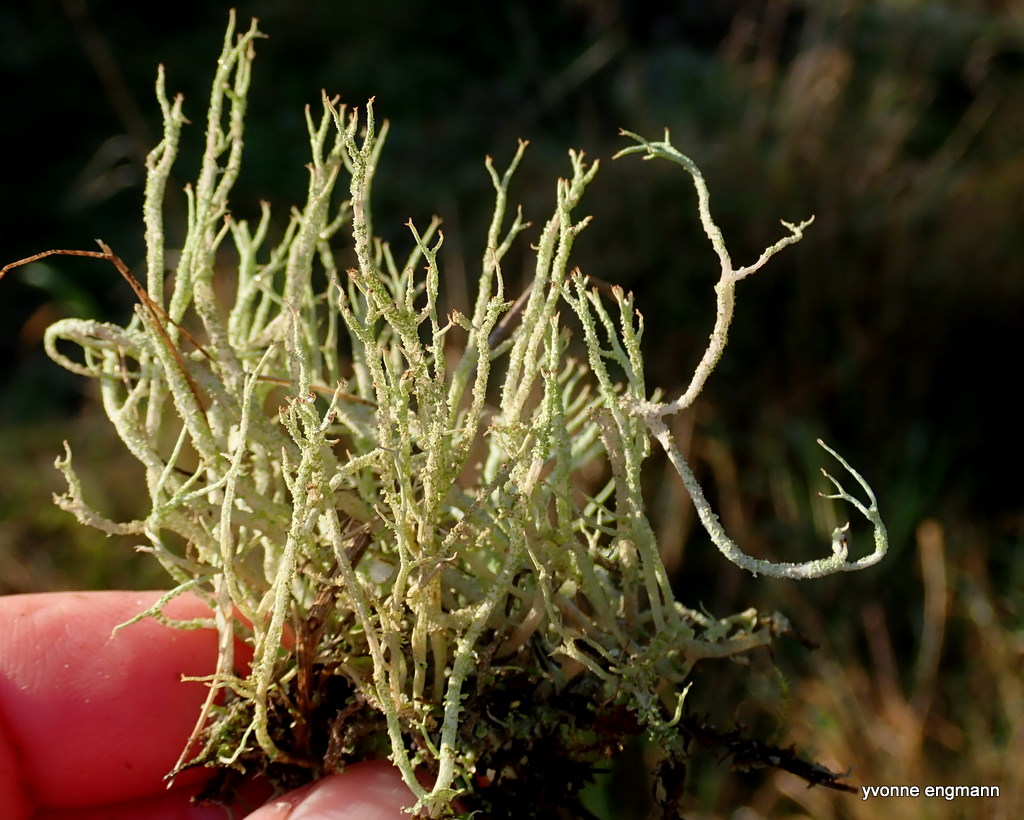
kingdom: Fungi
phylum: Ascomycota
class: Lecanoromycetes
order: Lecanorales
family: Cladoniaceae
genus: Cladonia
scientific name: Cladonia scabriuscula
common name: ru bægerlav
